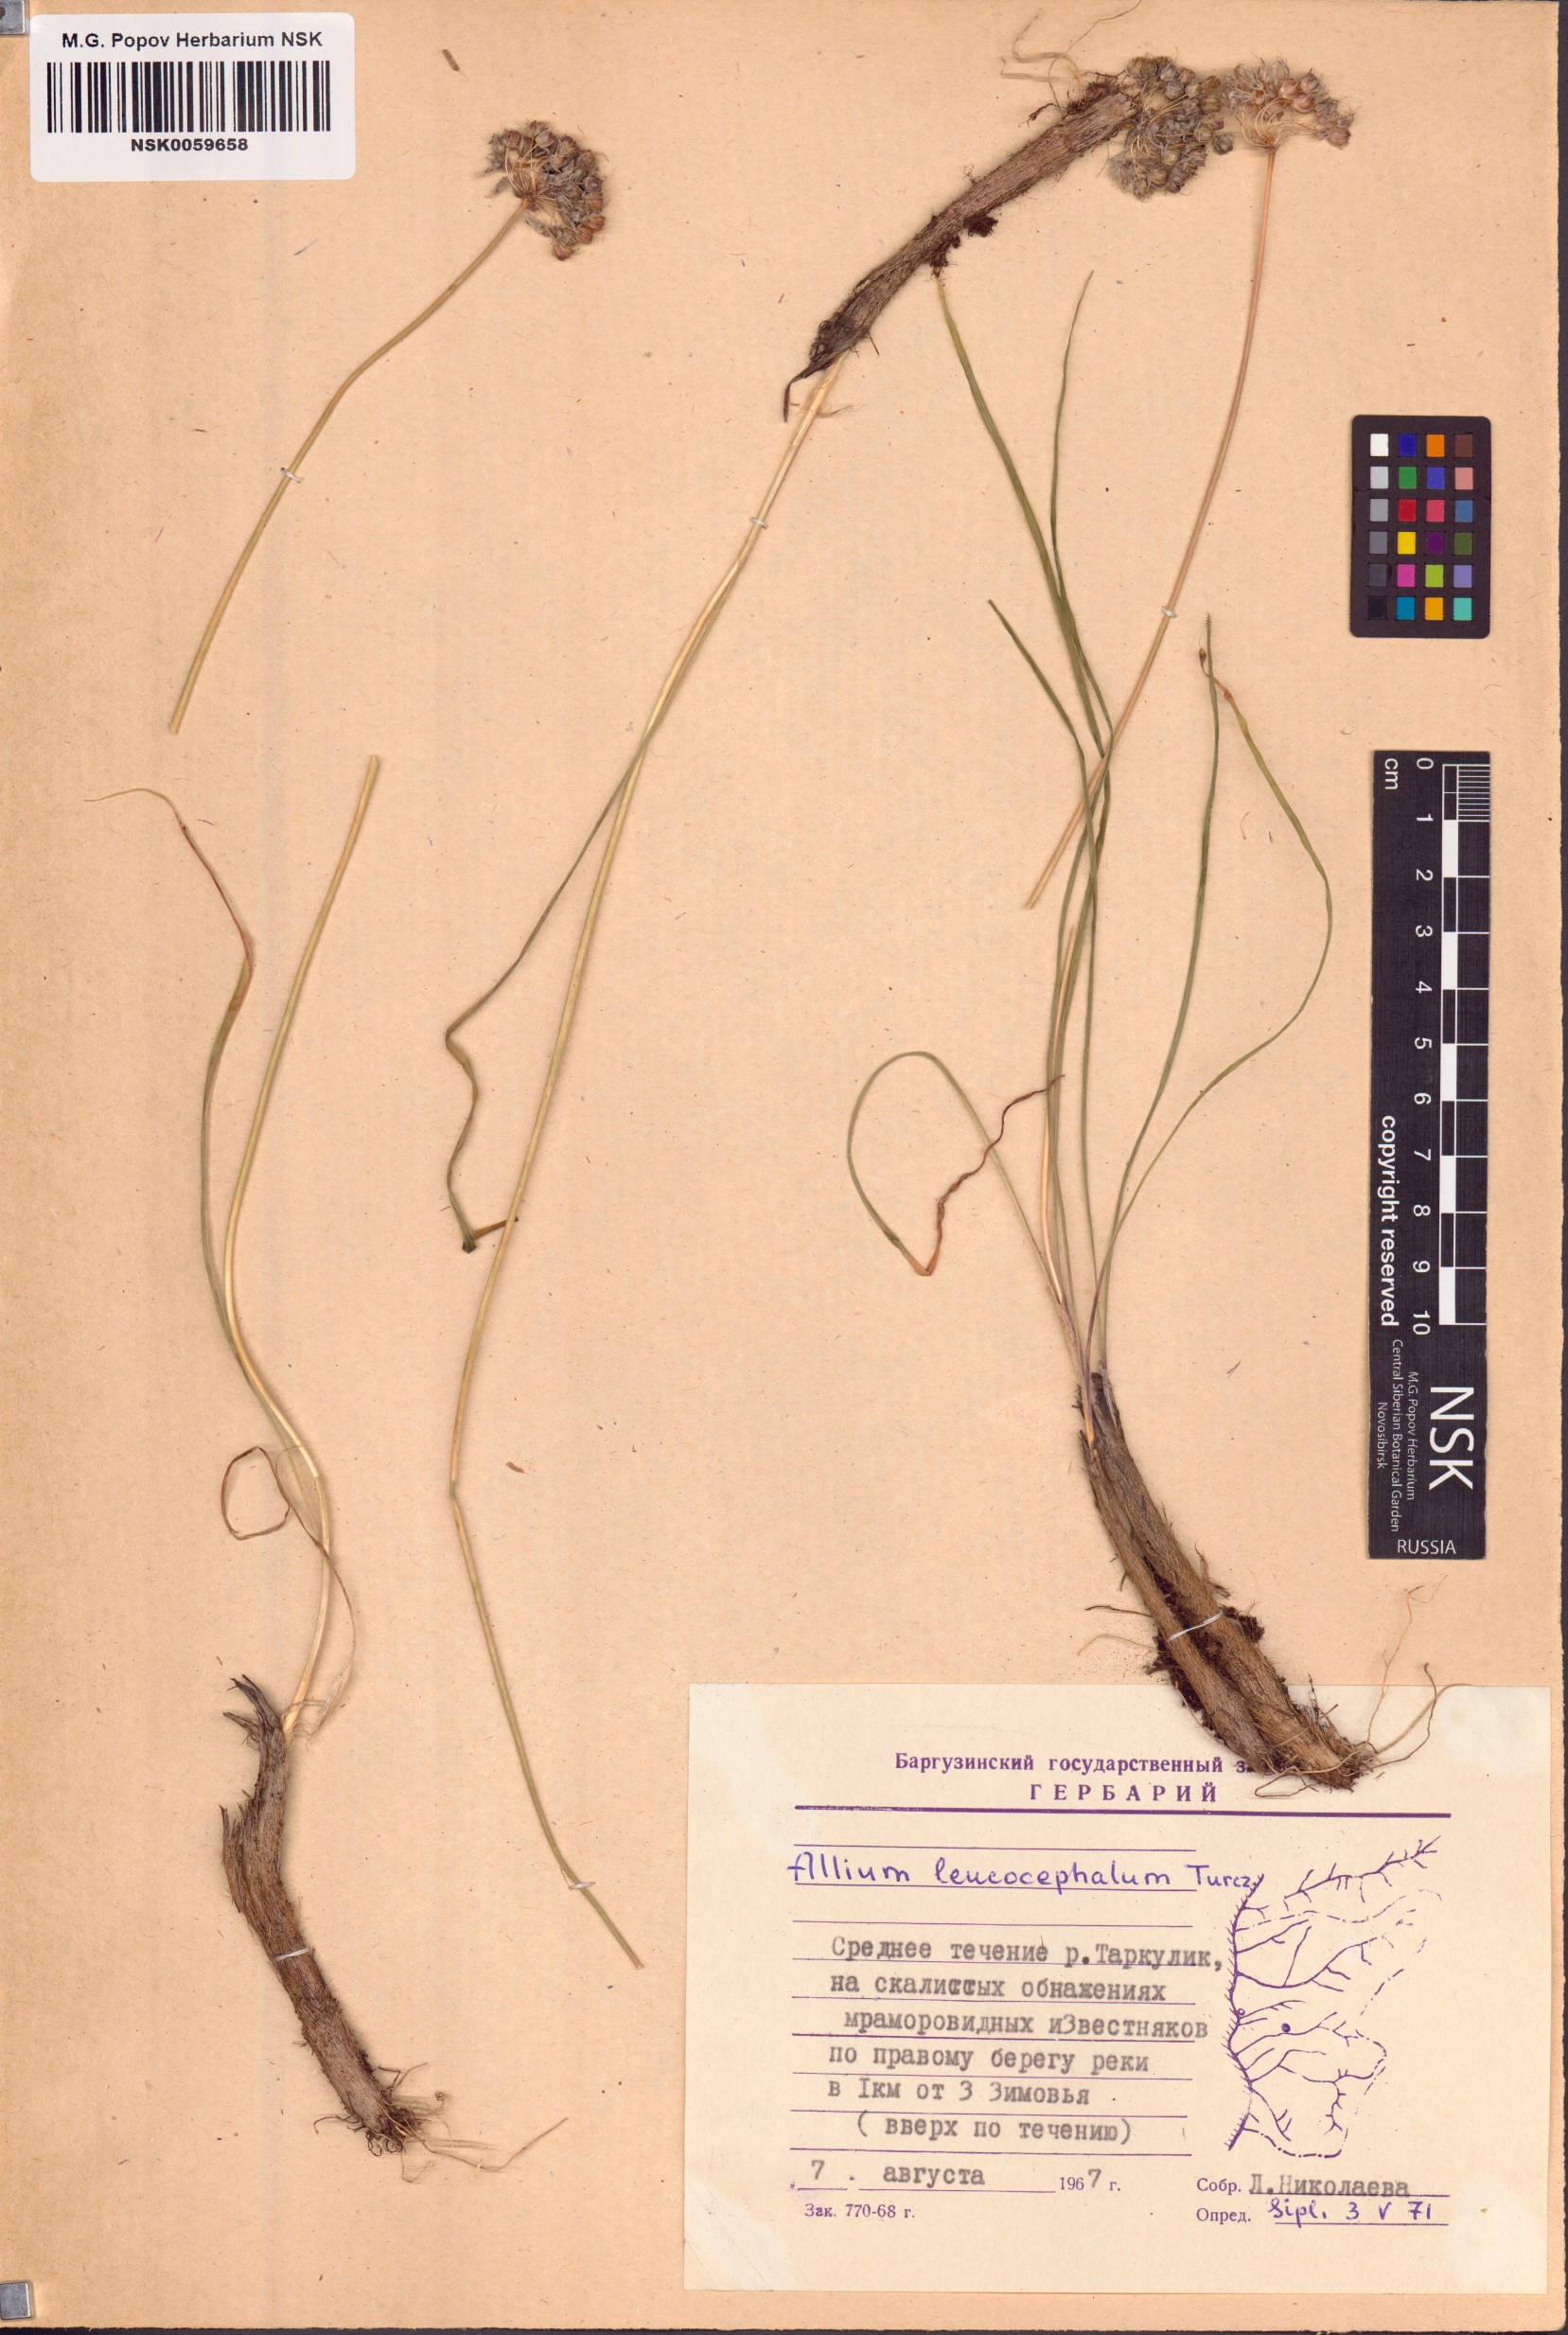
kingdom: Plantae
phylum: Tracheophyta
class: Liliopsida
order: Asparagales
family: Amaryllidaceae
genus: Allium
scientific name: Allium leucocephalum
